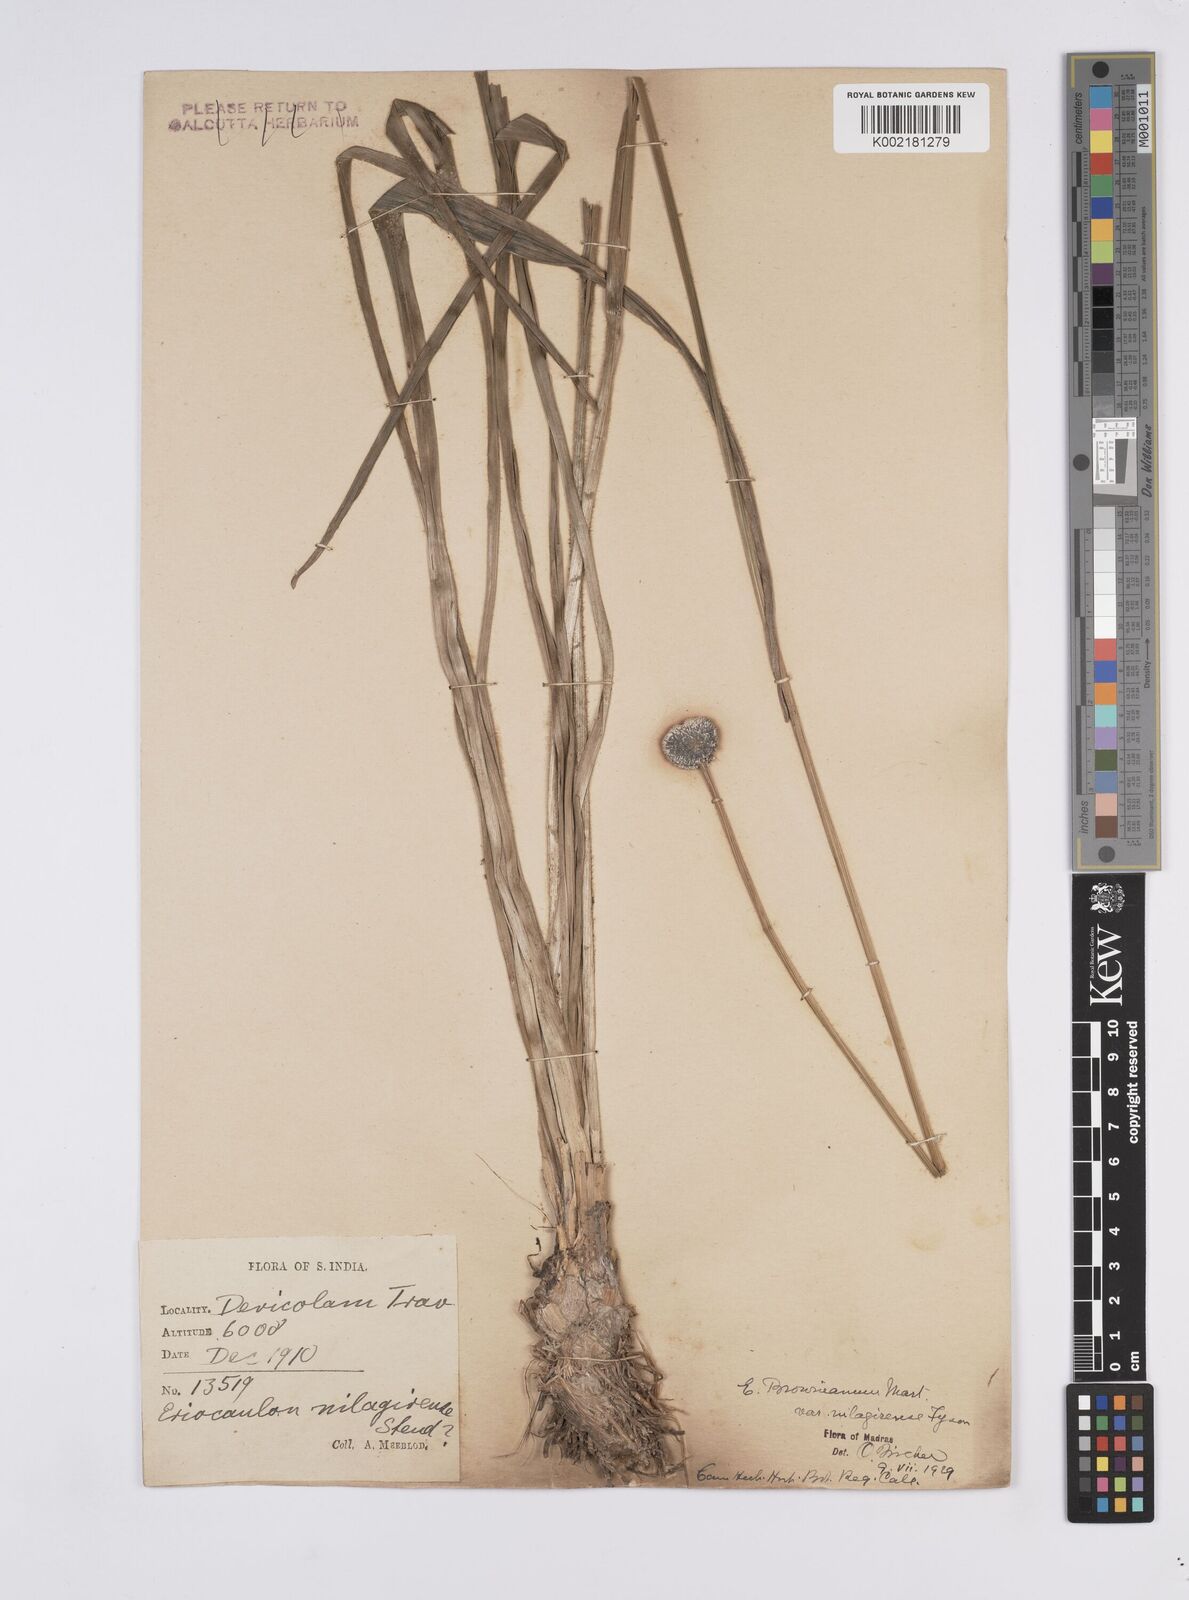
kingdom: Plantae
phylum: Tracheophyta
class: Liliopsida
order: Poales
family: Eriocaulaceae
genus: Eriocaulon
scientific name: Eriocaulon brownianum
